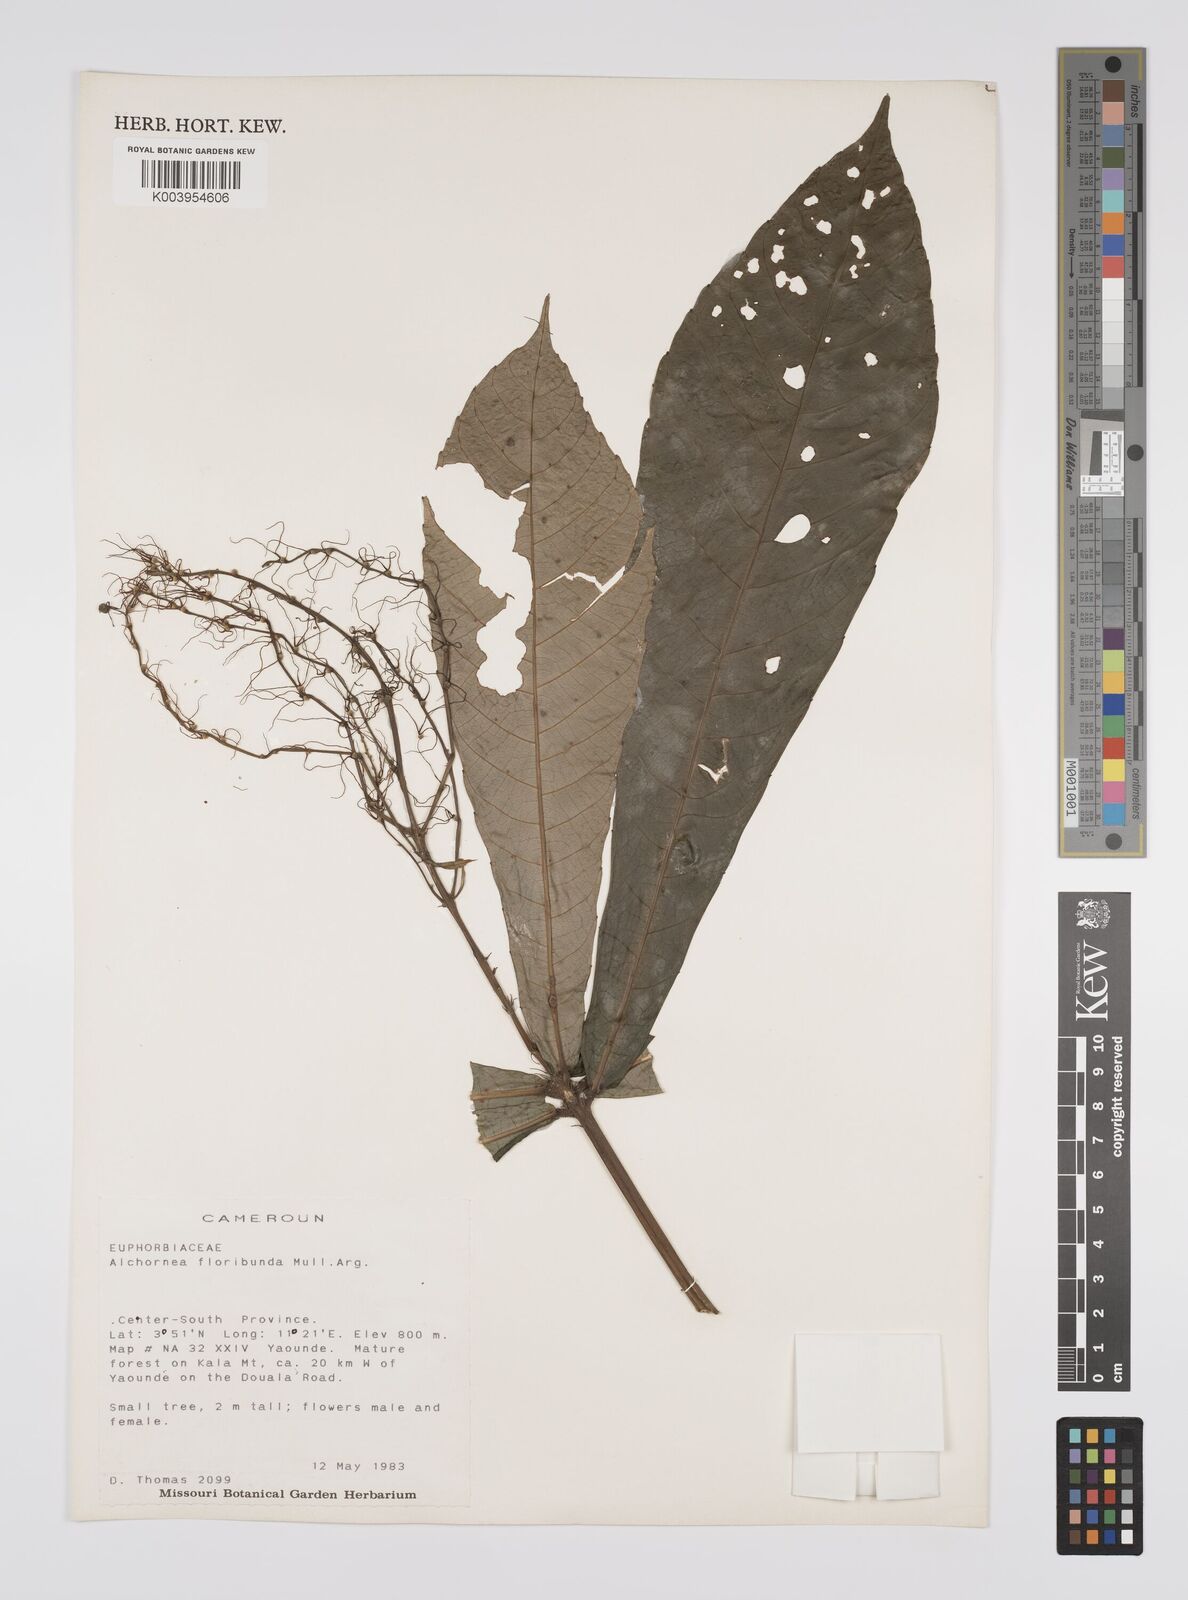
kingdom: Plantae
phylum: Tracheophyta
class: Magnoliopsida
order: Malpighiales
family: Euphorbiaceae
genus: Alchornea
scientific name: Alchornea floribunda
